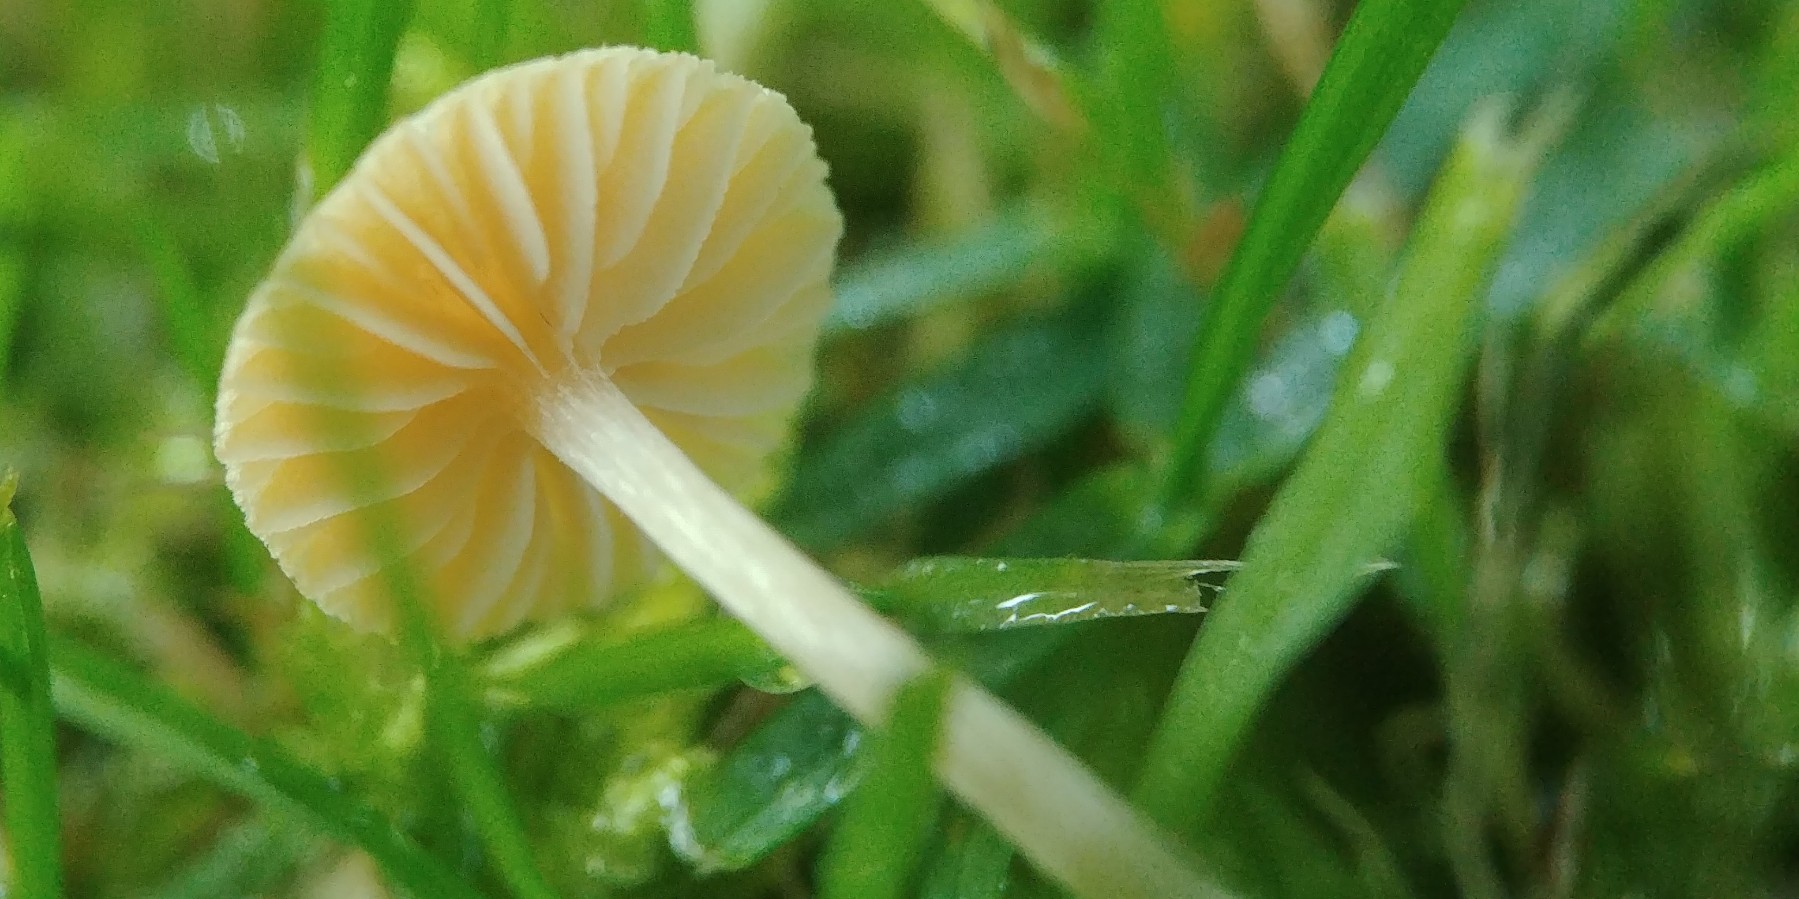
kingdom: Fungi
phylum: Basidiomycota
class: Agaricomycetes
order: Agaricales
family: Tubariaceae
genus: Tubaria
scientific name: Tubaria dispersa
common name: tjørne-fnughat
